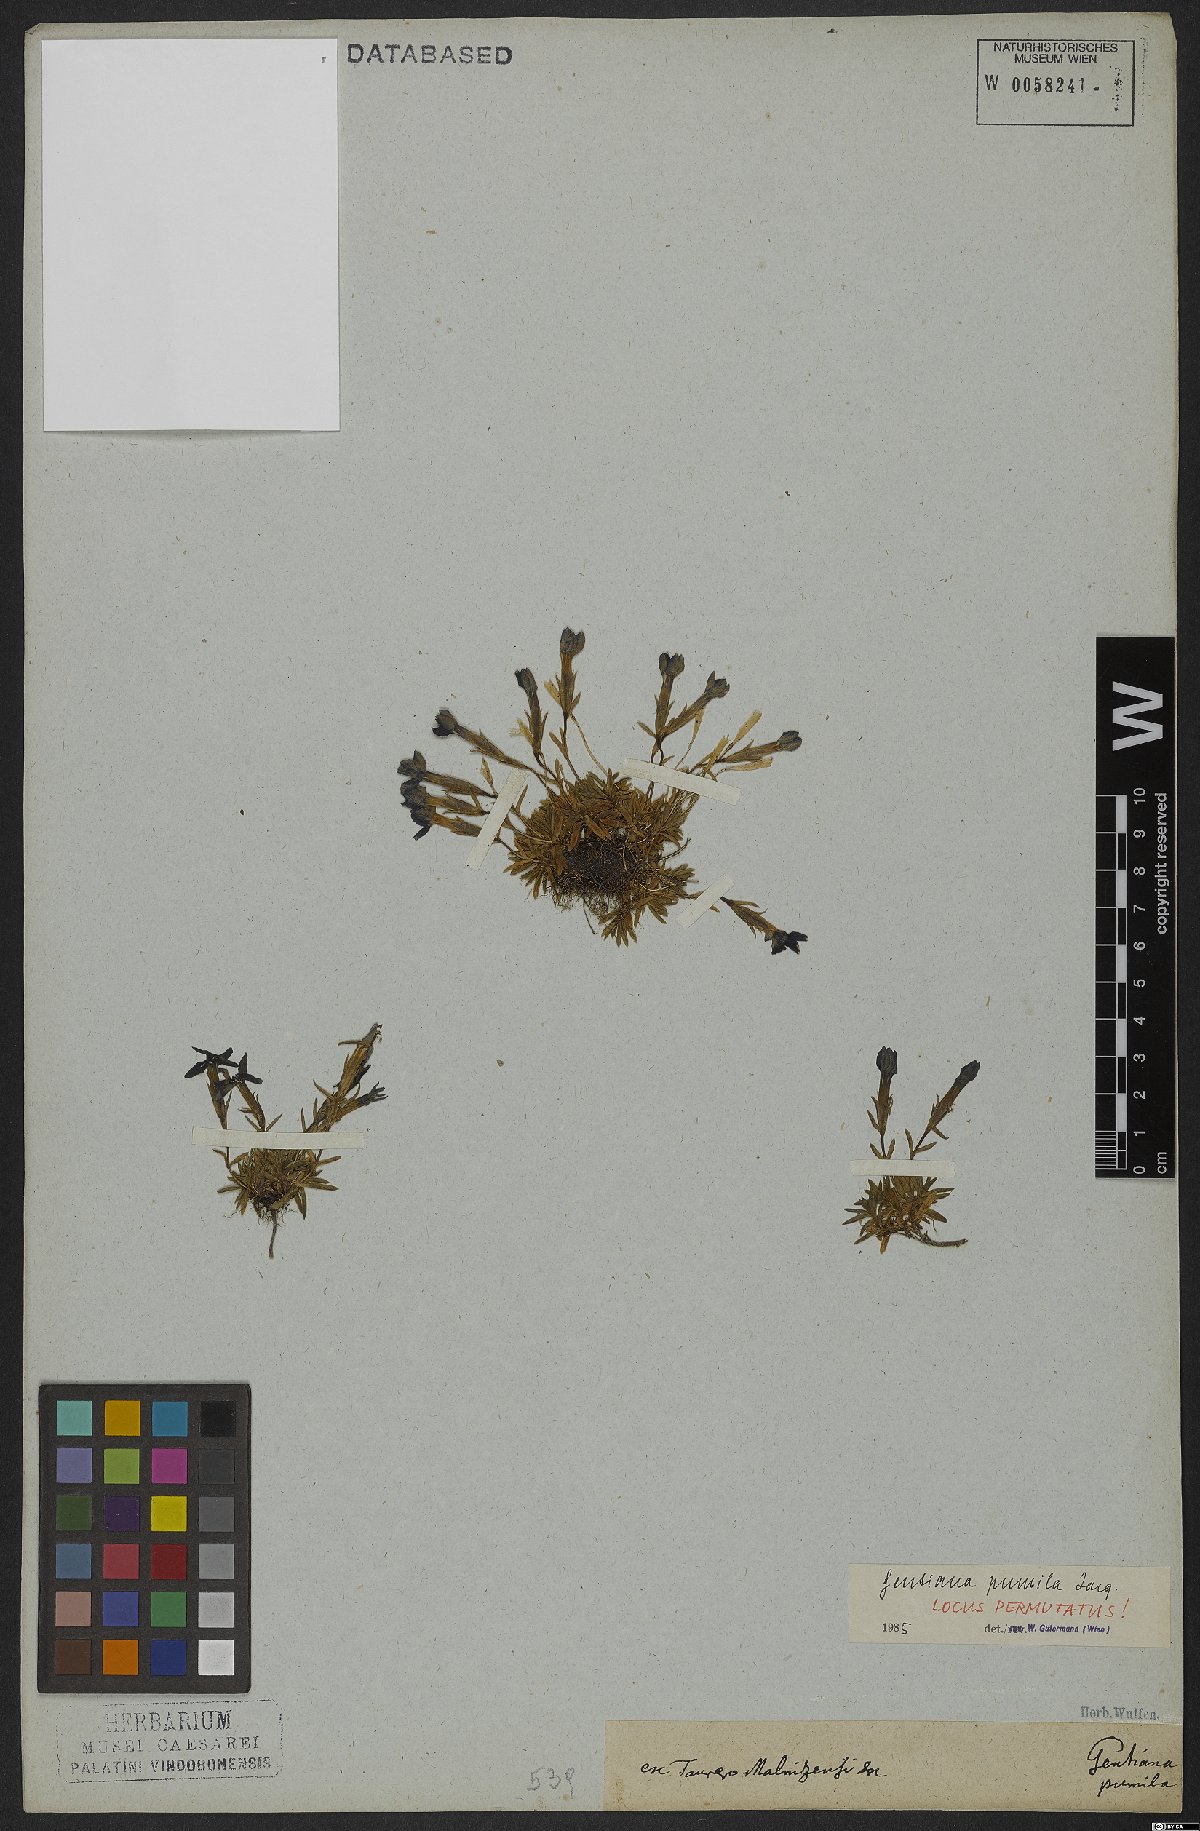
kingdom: Plantae
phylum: Tracheophyta
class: Magnoliopsida
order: Gentianales
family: Gentianaceae
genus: Gentiana
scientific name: Gentiana pumila
